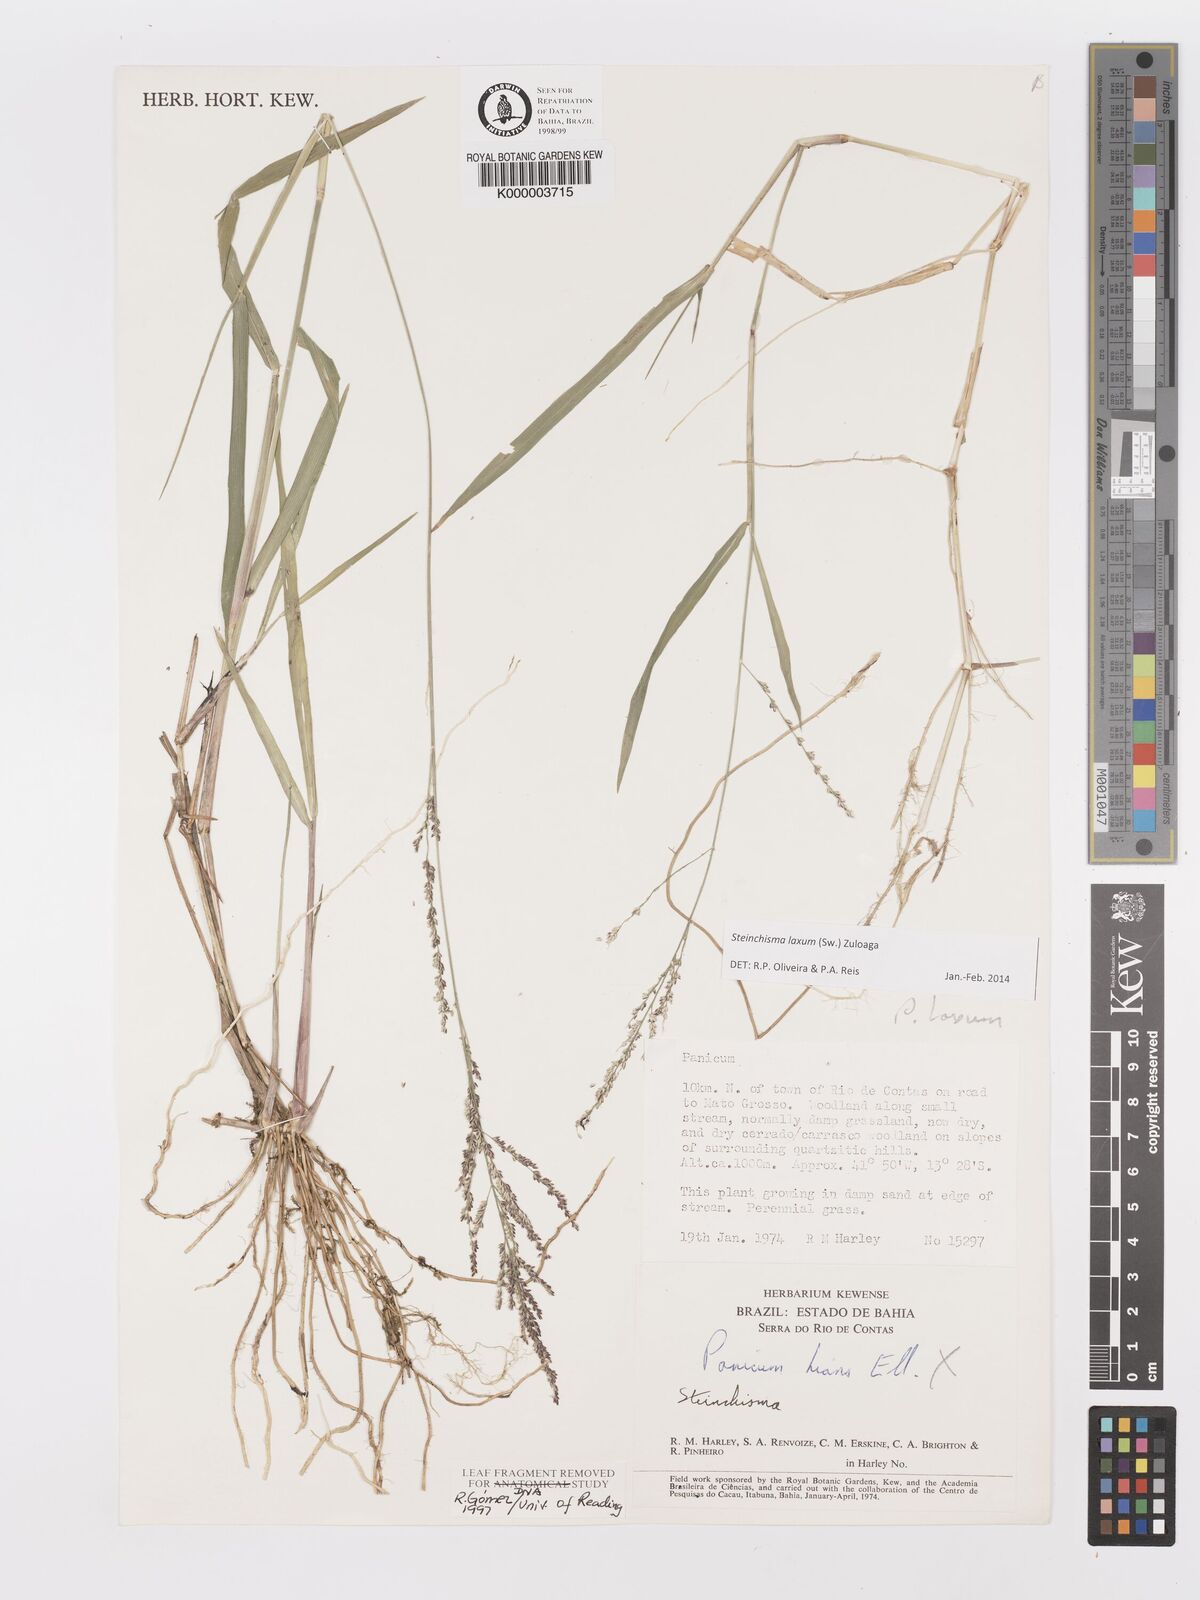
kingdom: Plantae
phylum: Tracheophyta
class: Liliopsida
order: Poales
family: Poaceae
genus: Panicum
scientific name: Panicum
